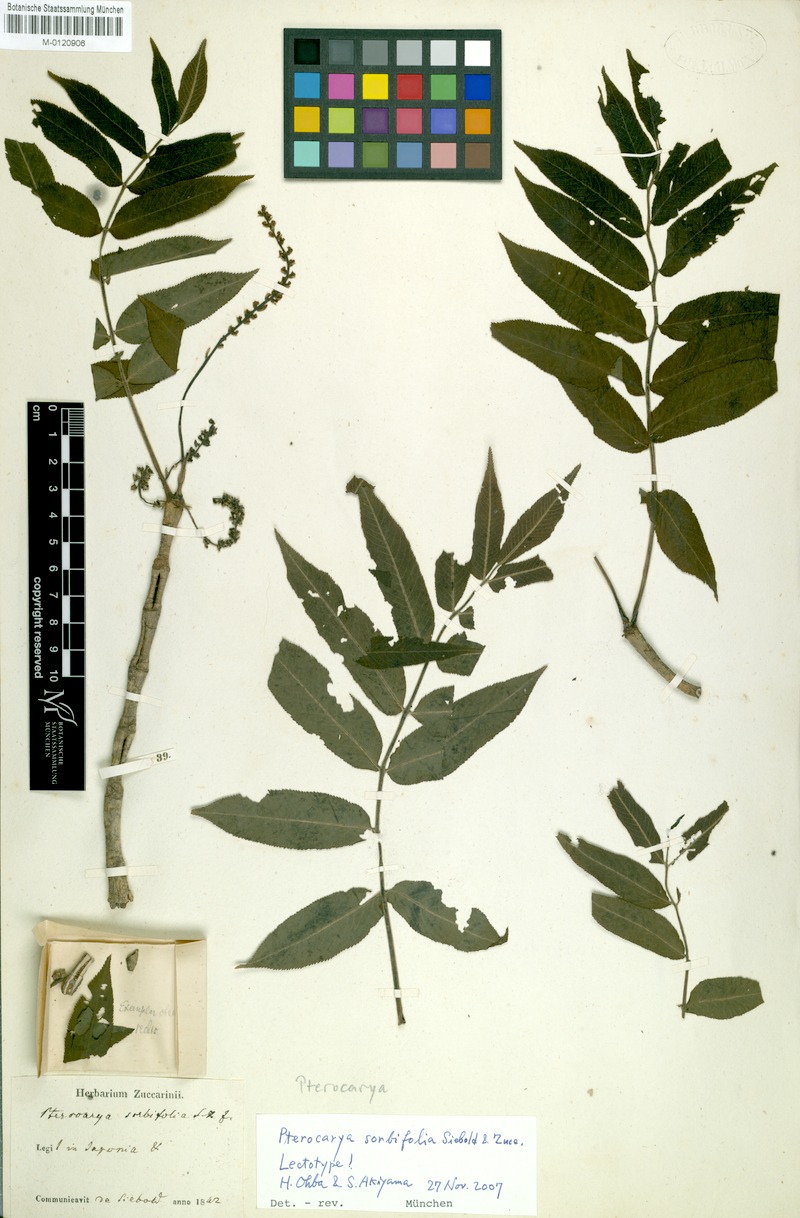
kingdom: Plantae
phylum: Tracheophyta
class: Magnoliopsida
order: Fagales
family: Juglandaceae
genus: Pterocarya
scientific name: Pterocarya rhoifolia
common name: Japanese wingnut
